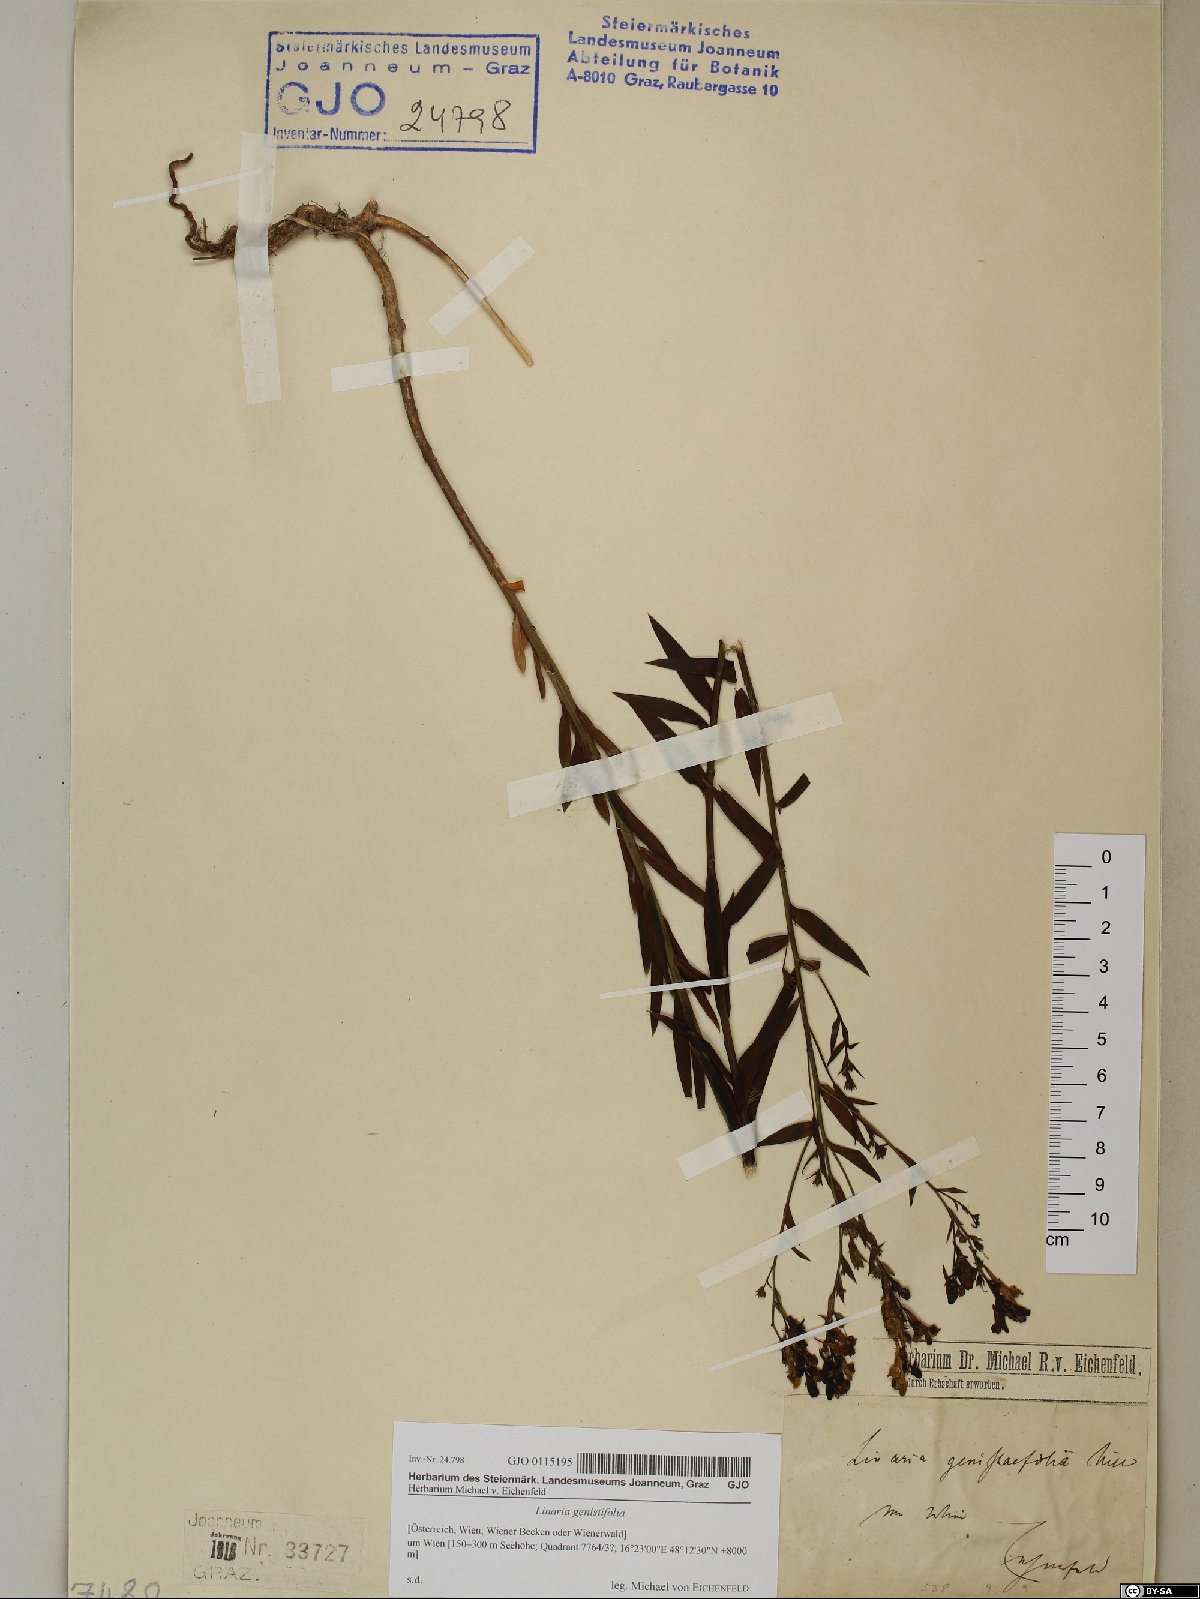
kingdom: Plantae
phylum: Tracheophyta
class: Magnoliopsida
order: Lamiales
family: Plantaginaceae
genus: Linaria
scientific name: Linaria genistifolia
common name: Broomleaf toadflax
